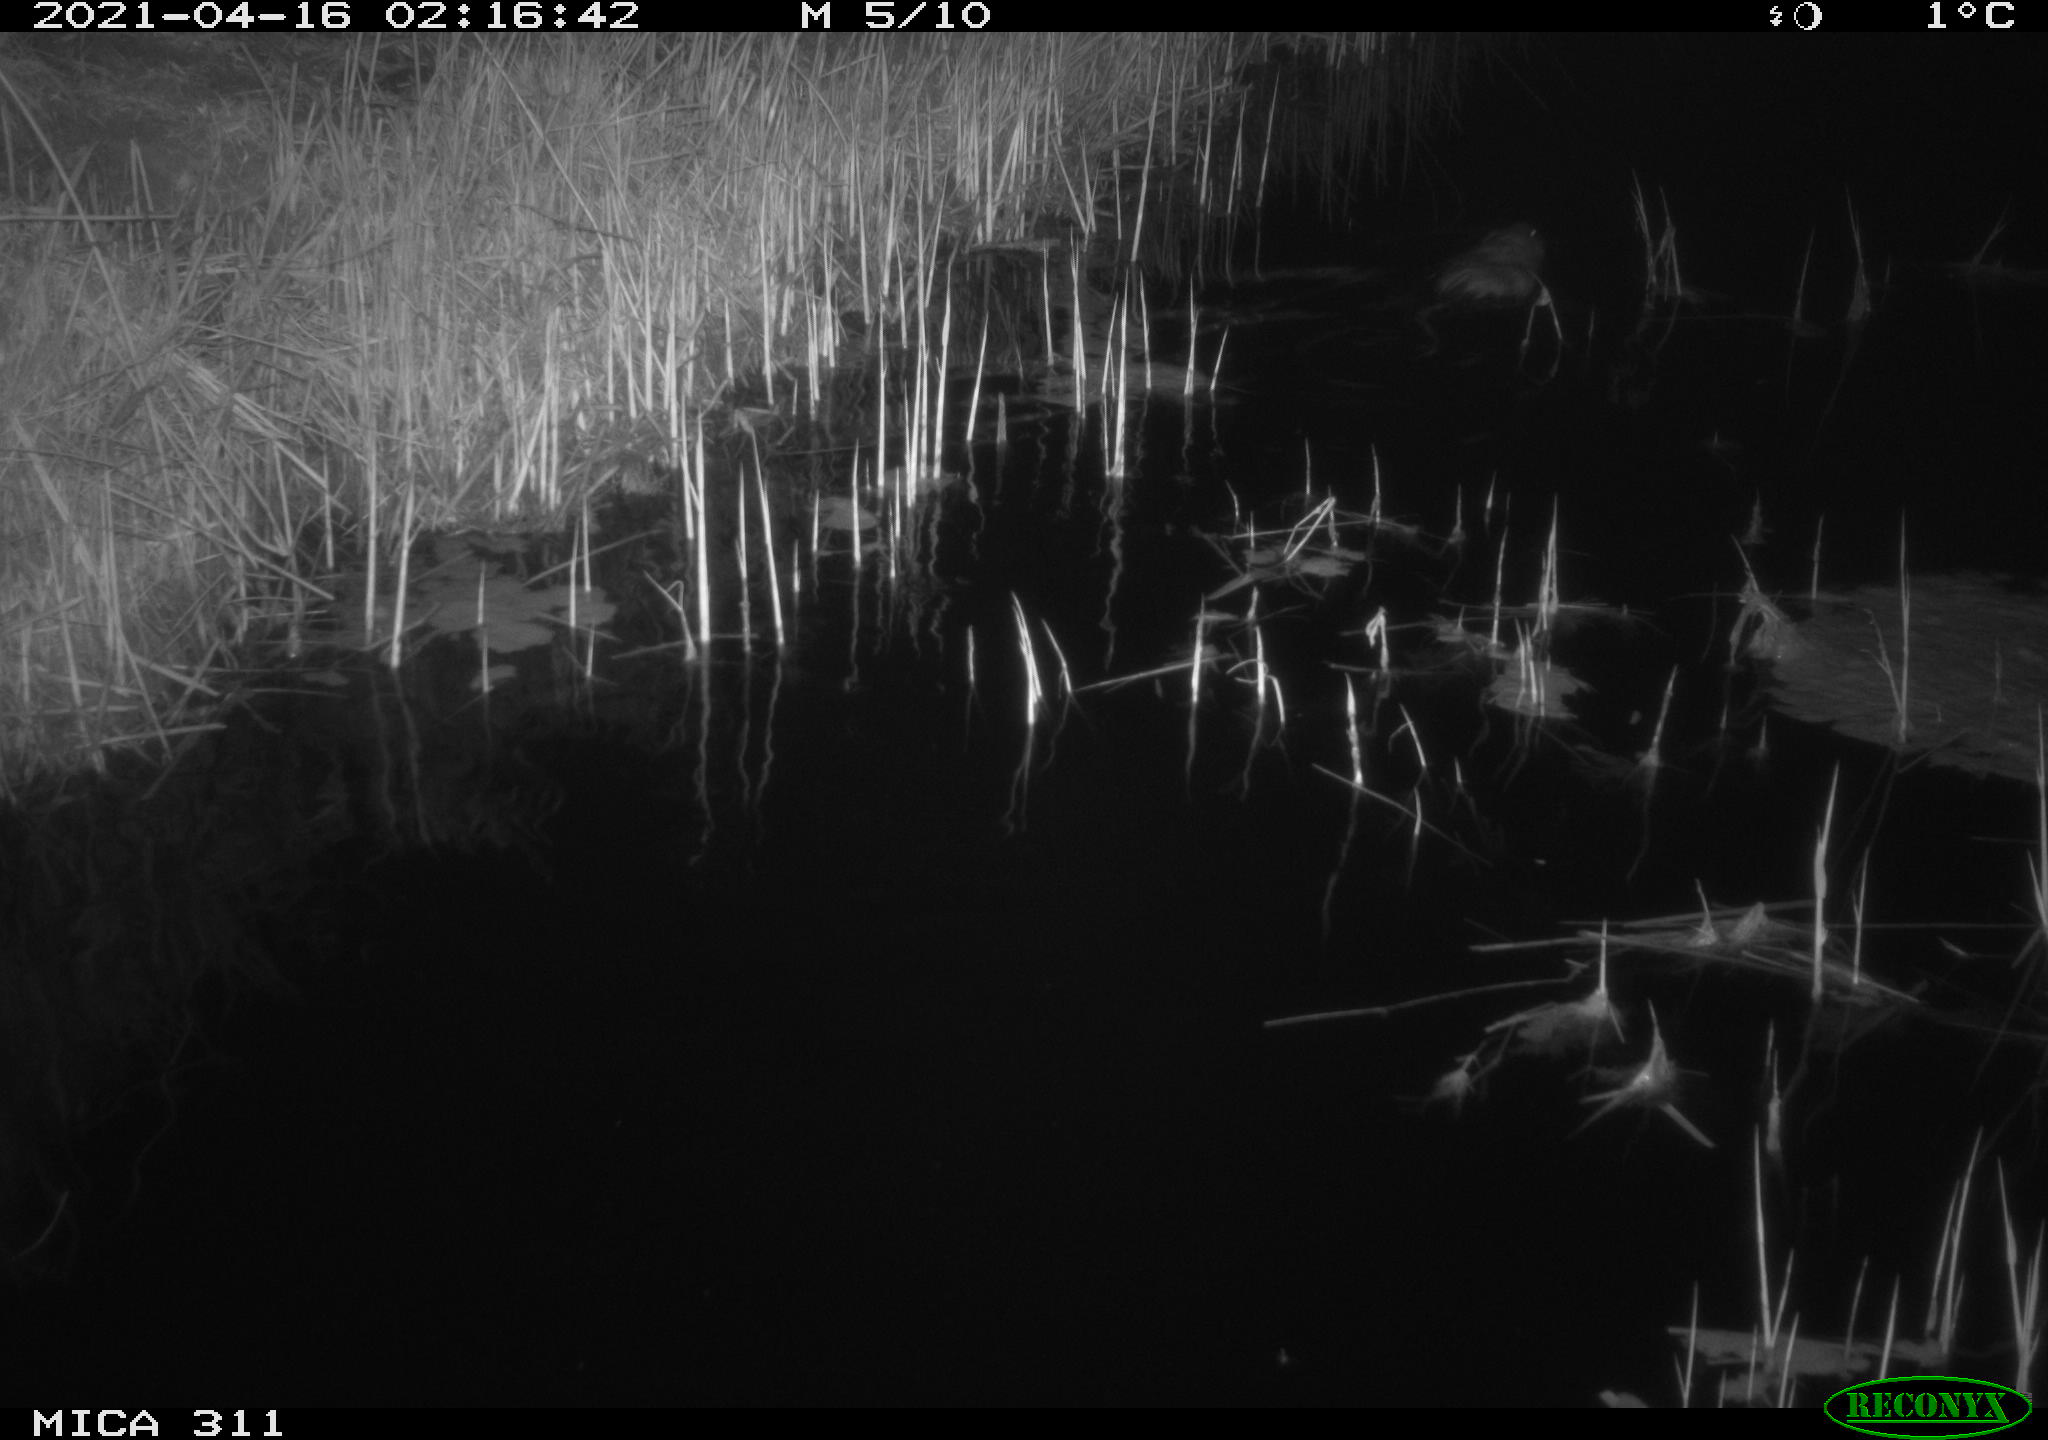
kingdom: Animalia
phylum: Chordata
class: Mammalia
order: Rodentia
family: Cricetidae
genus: Ondatra
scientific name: Ondatra zibethicus
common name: Muskrat
